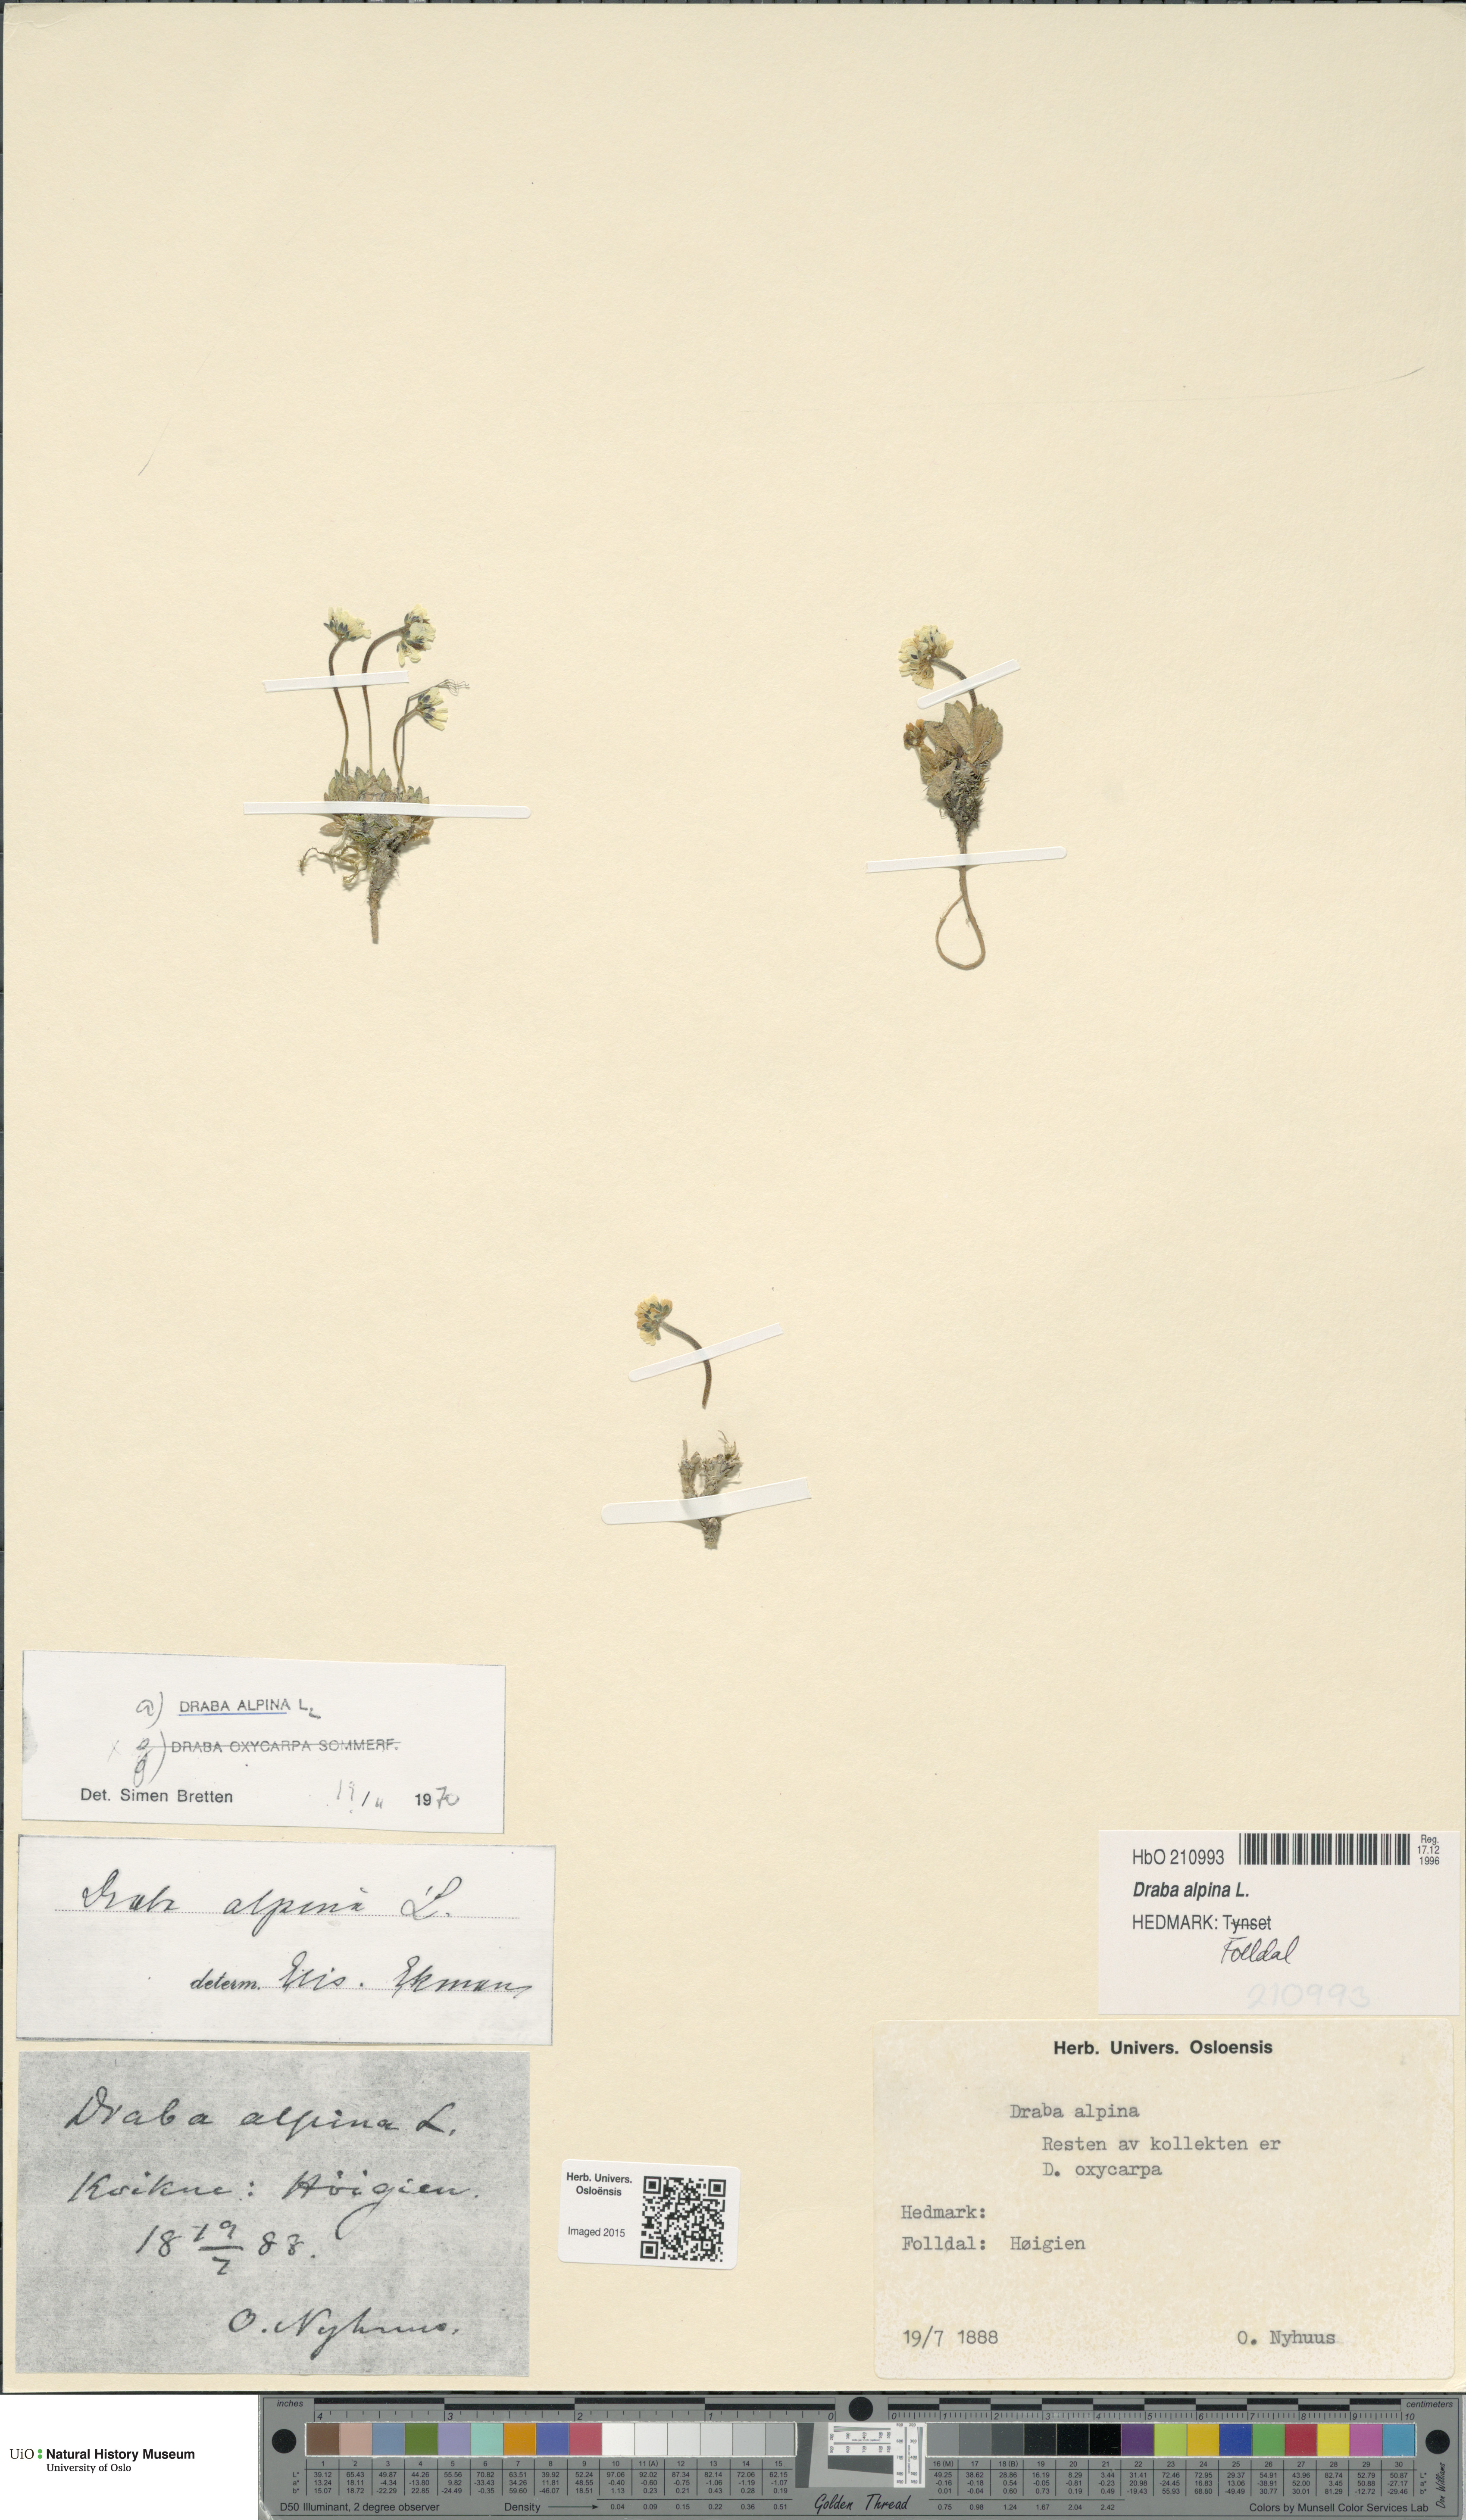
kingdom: Plantae
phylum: Tracheophyta
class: Magnoliopsida
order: Brassicales
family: Brassicaceae
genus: Draba
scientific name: Draba alpina
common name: Alpine draba
